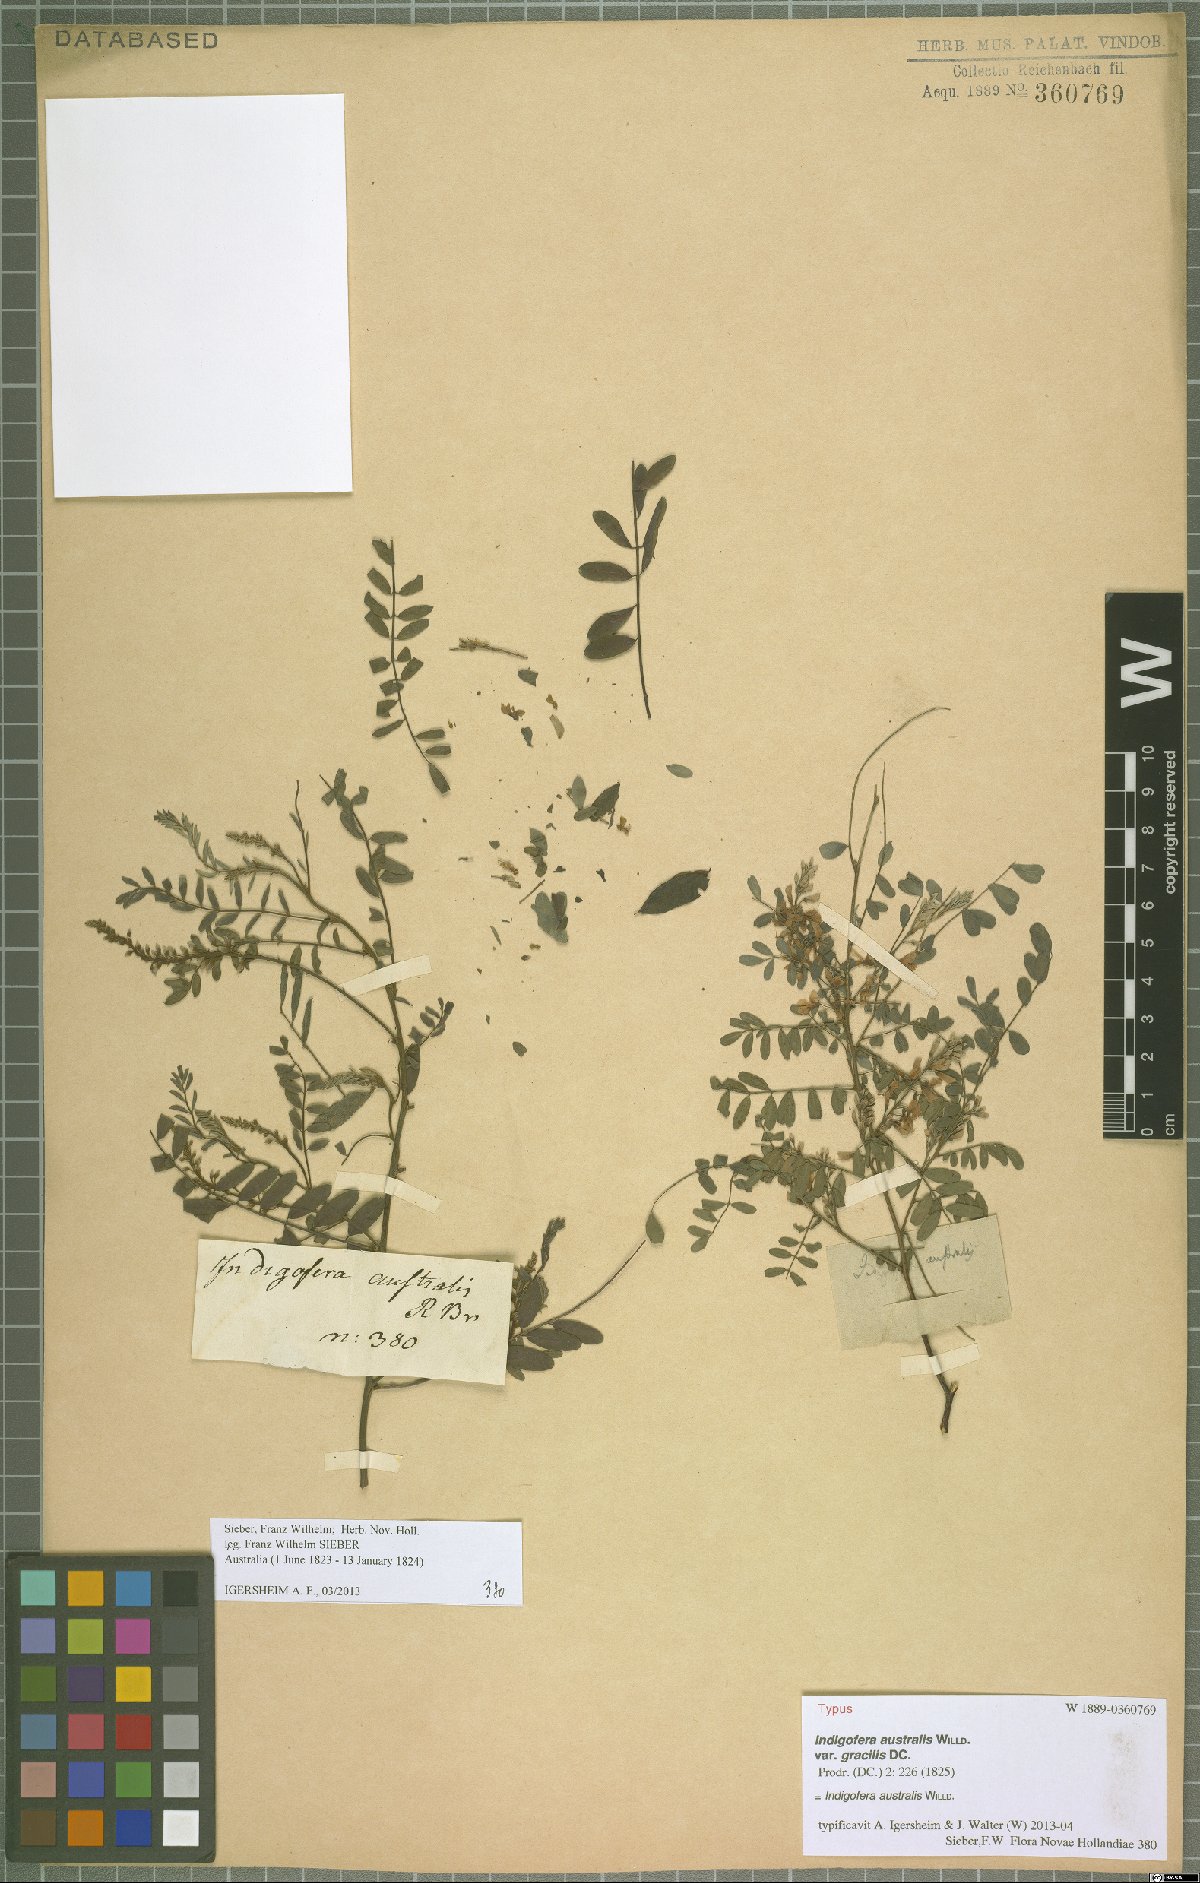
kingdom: Plantae
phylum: Tracheophyta
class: Magnoliopsida
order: Fabales
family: Fabaceae
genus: Indigofera
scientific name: Indigofera australis
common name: Australian indigo
